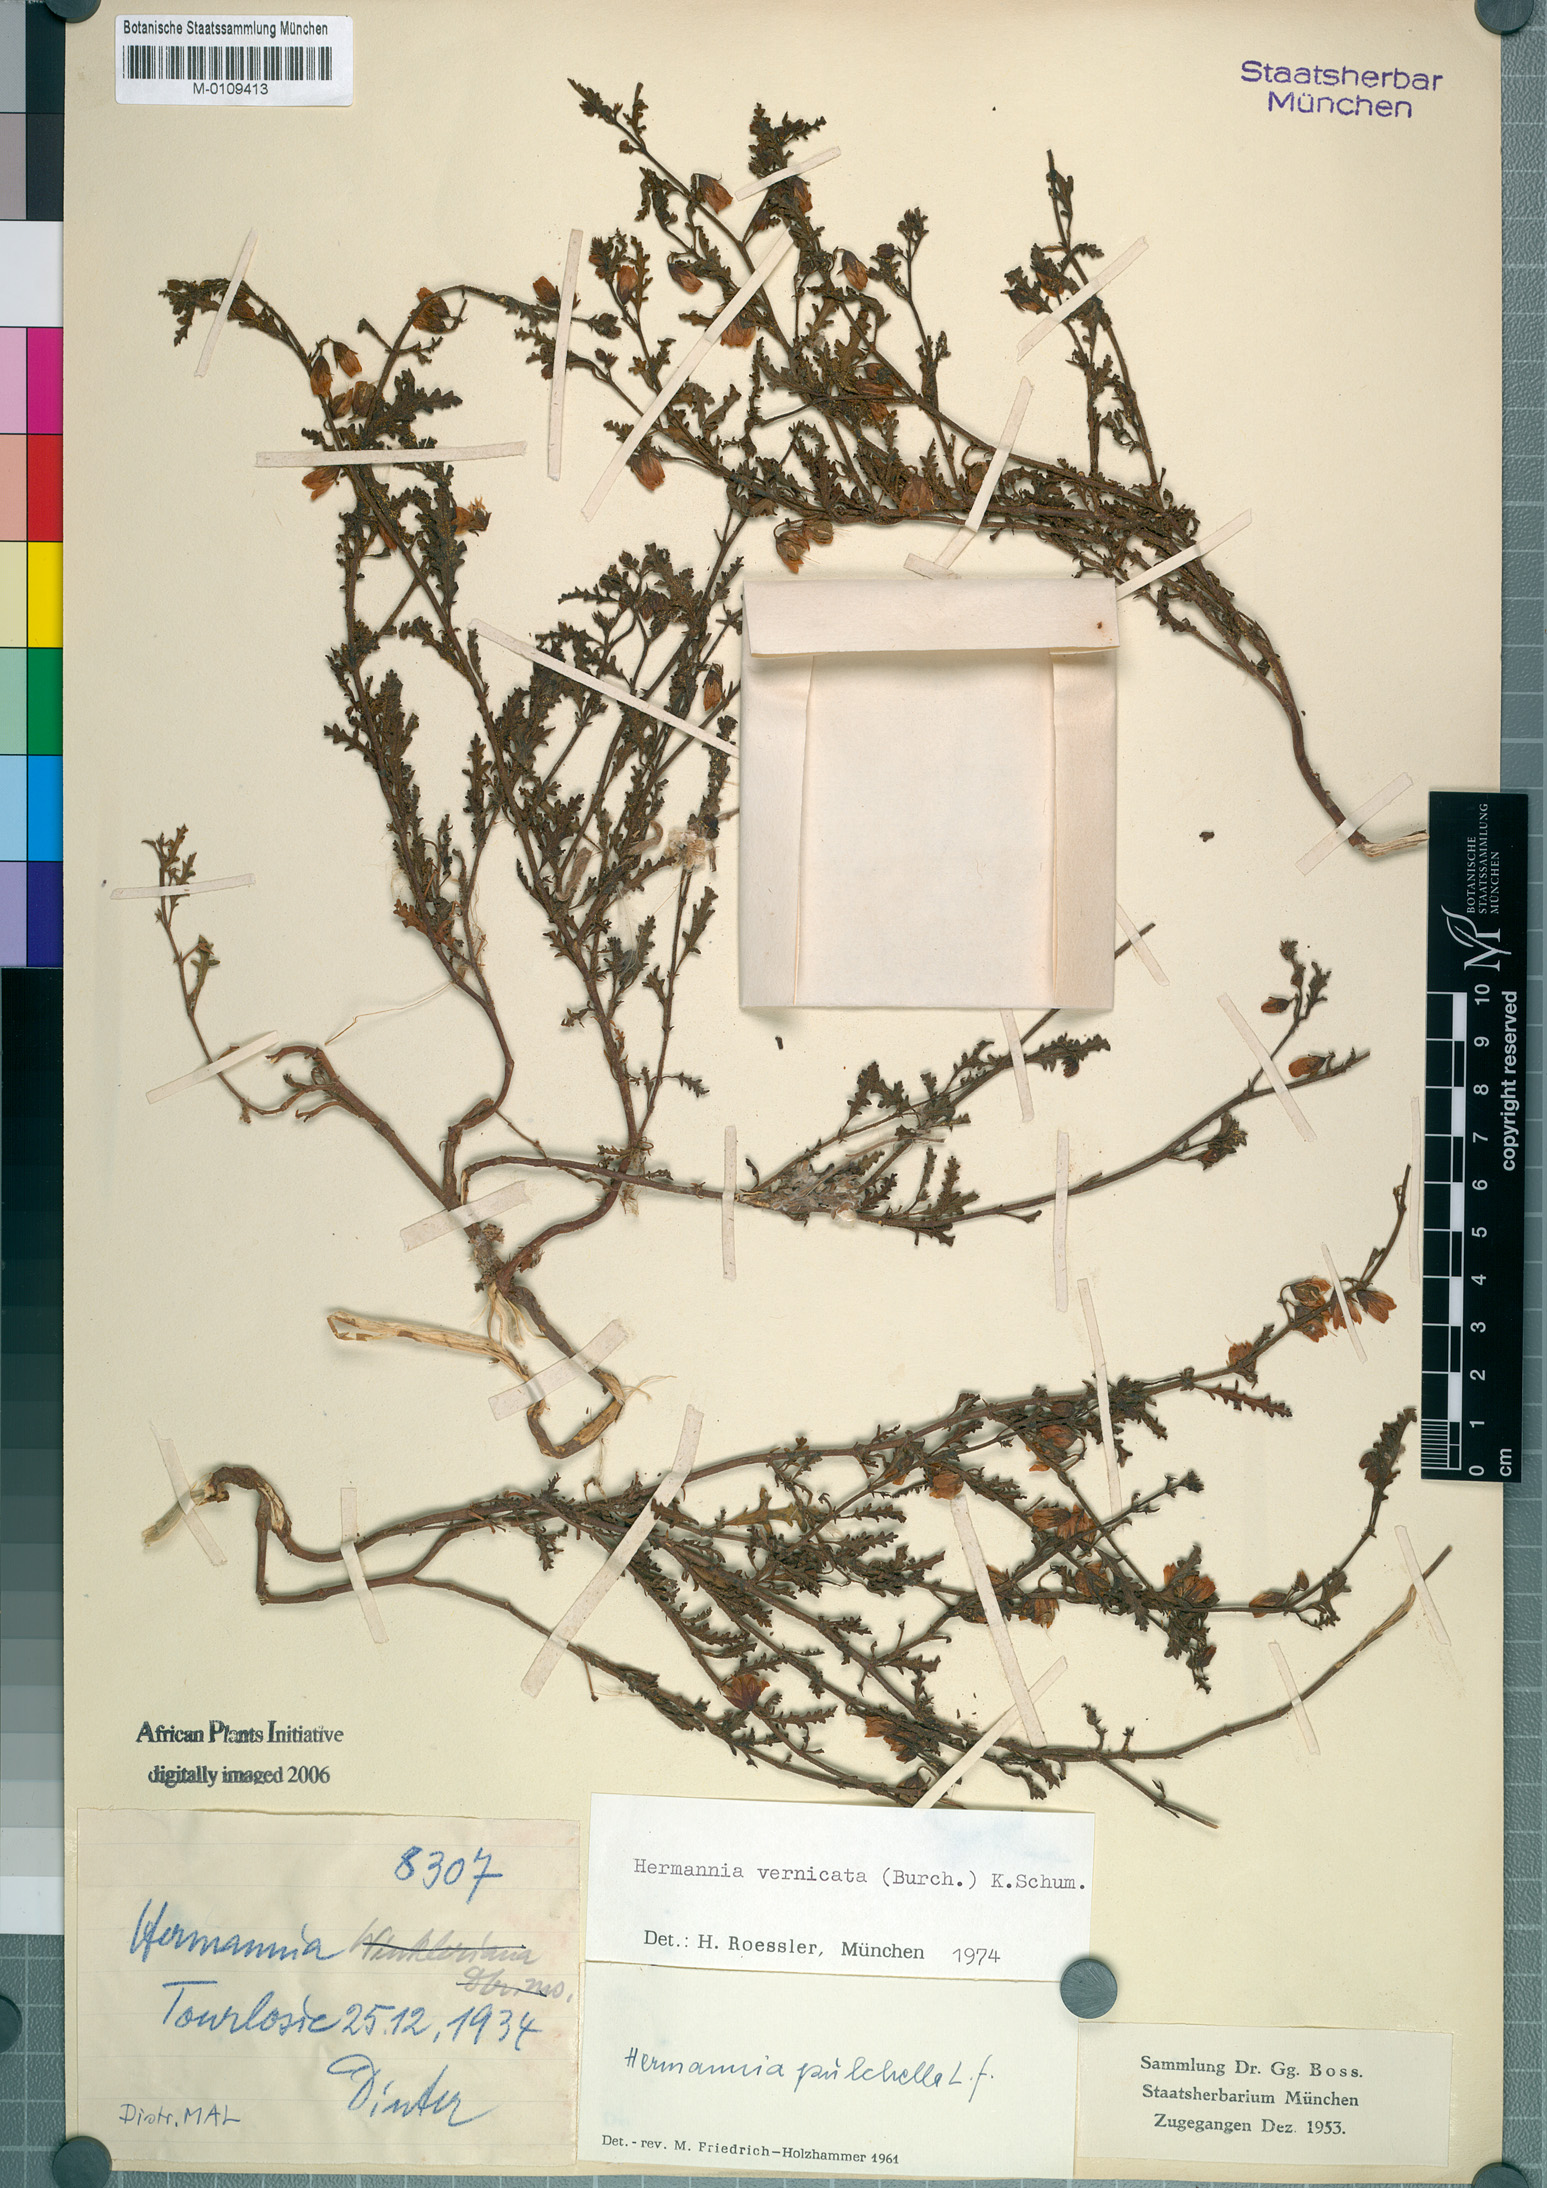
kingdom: Plantae
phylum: Tracheophyta
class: Magnoliopsida
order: Malvales
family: Malvaceae
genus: Hermannia
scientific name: Hermannia pulchella
